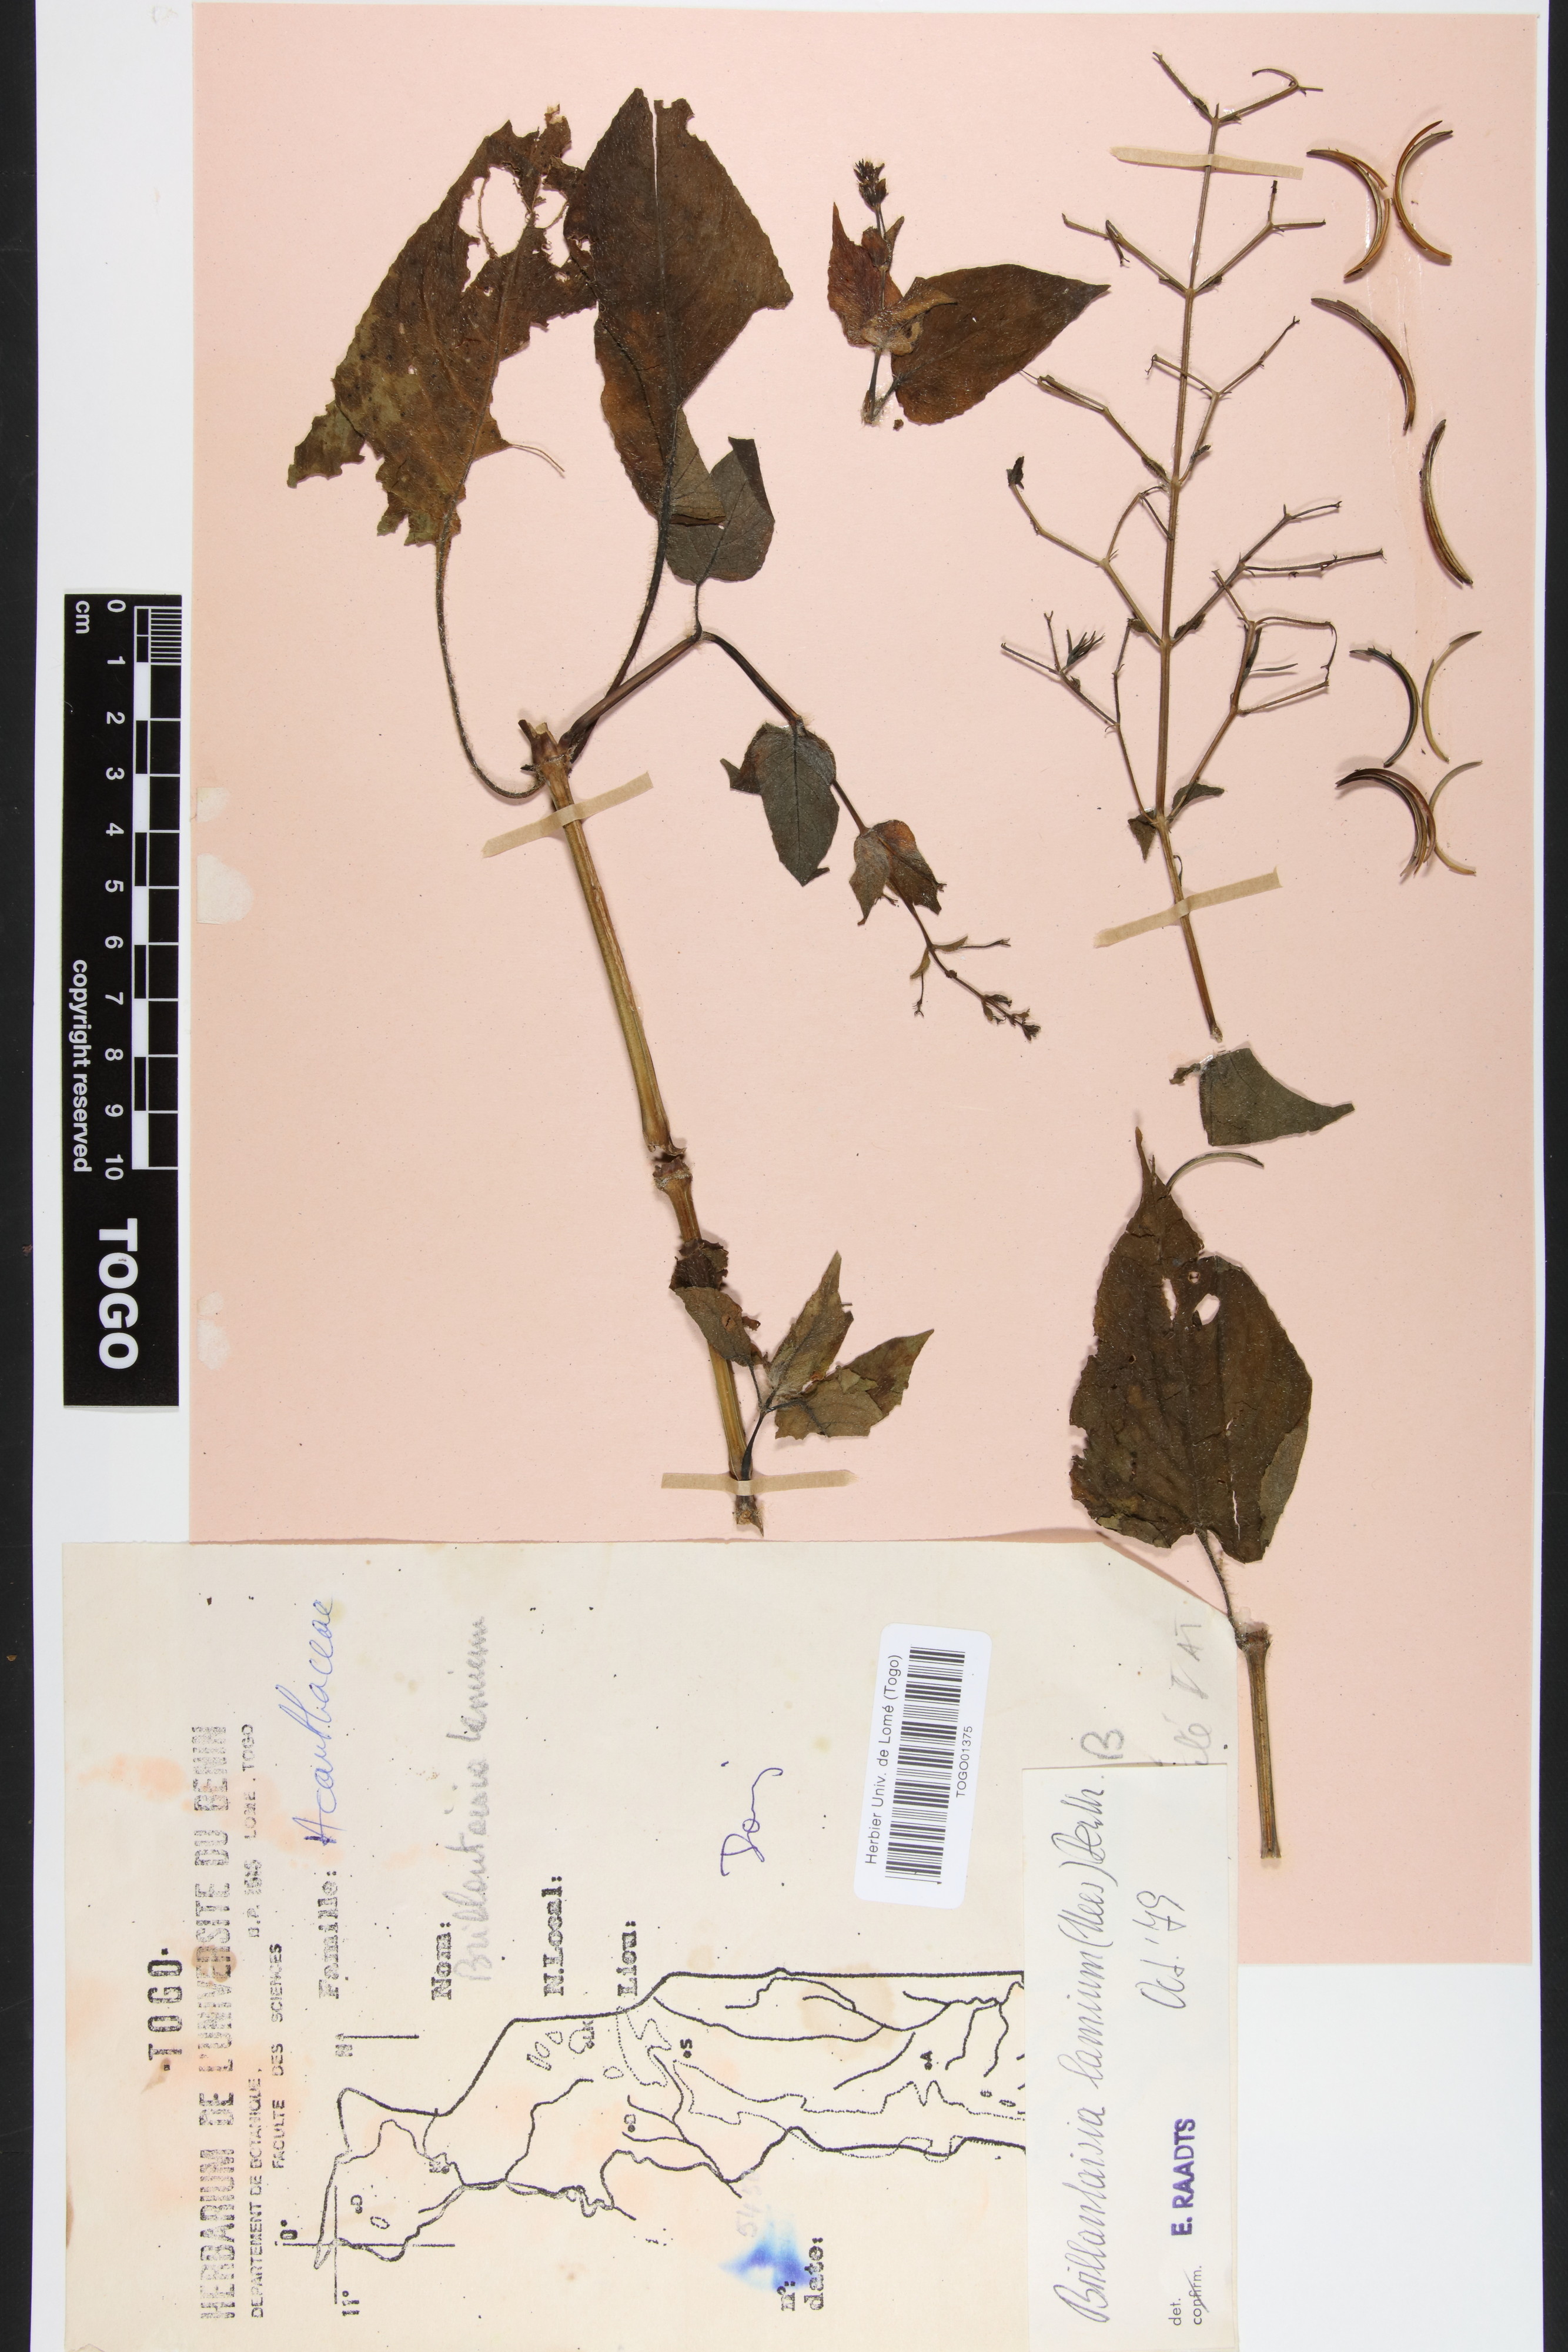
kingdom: Plantae
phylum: Tracheophyta
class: Magnoliopsida
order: Lamiales
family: Acanthaceae
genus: Brillantaisia
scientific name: Brillantaisia lamium
